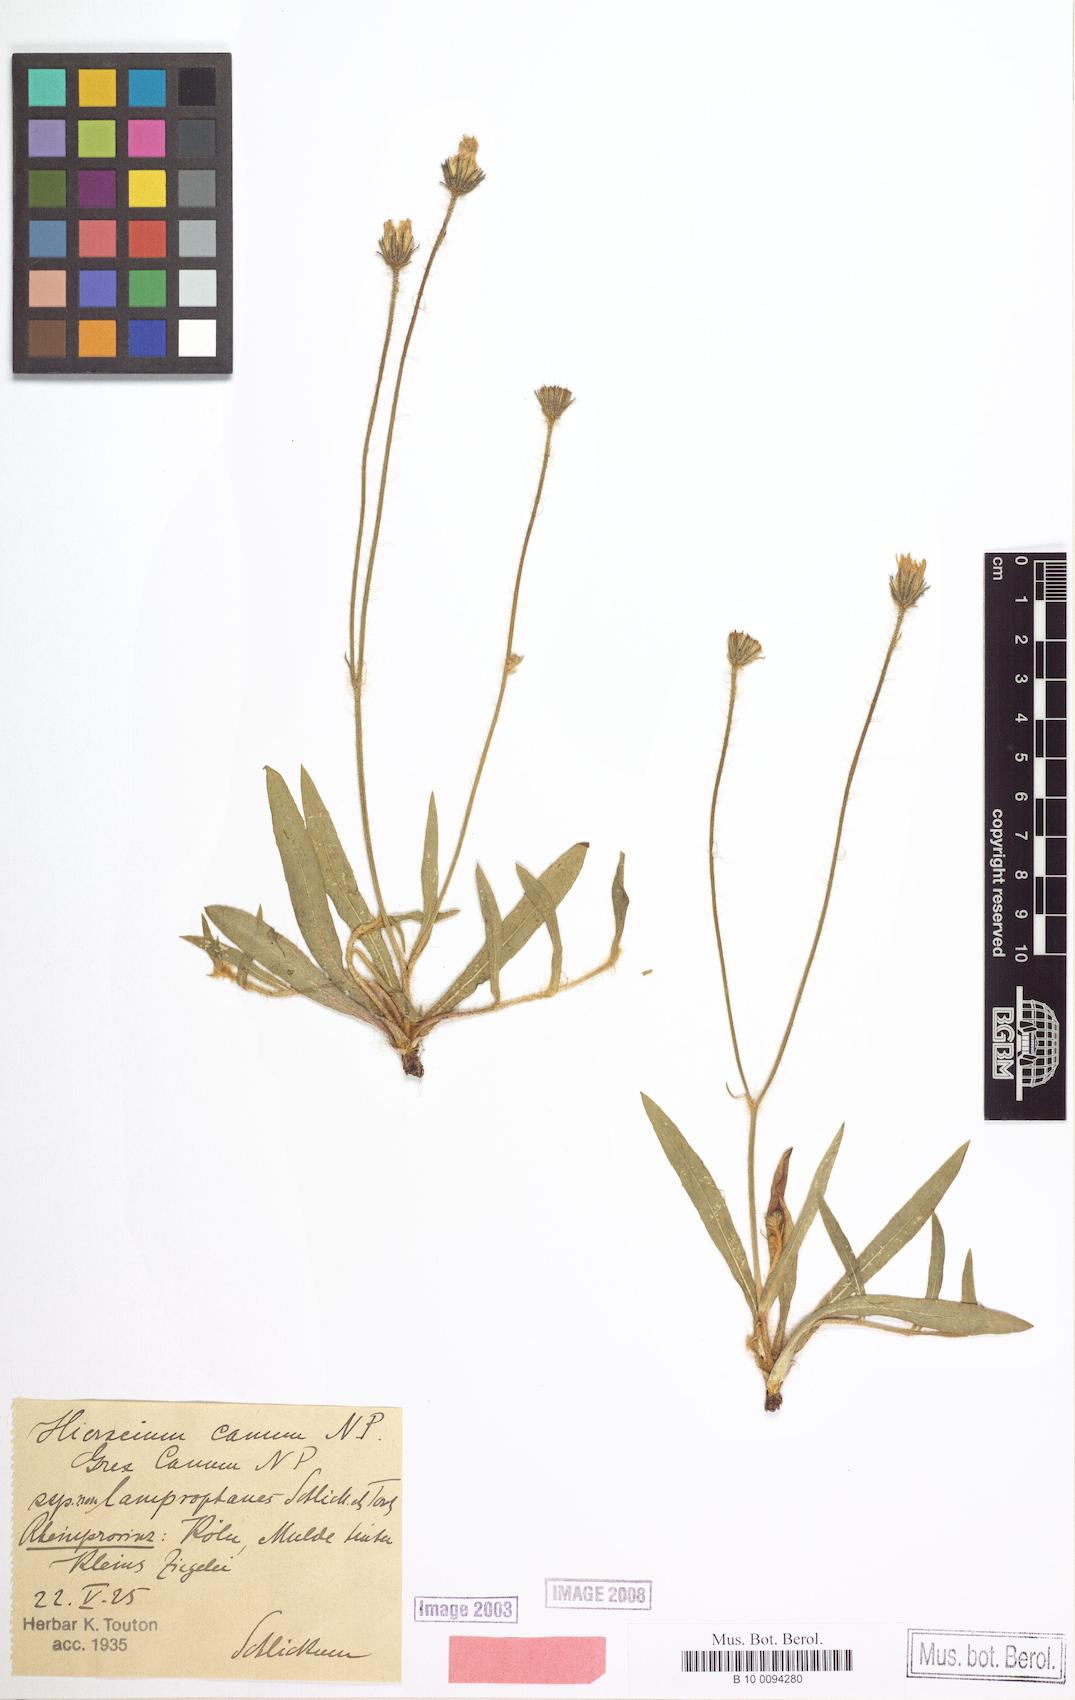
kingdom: Plantae
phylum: Tracheophyta
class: Magnoliopsida
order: Asterales
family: Asteraceae
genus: Pilosella
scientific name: Pilosella pilosellina
